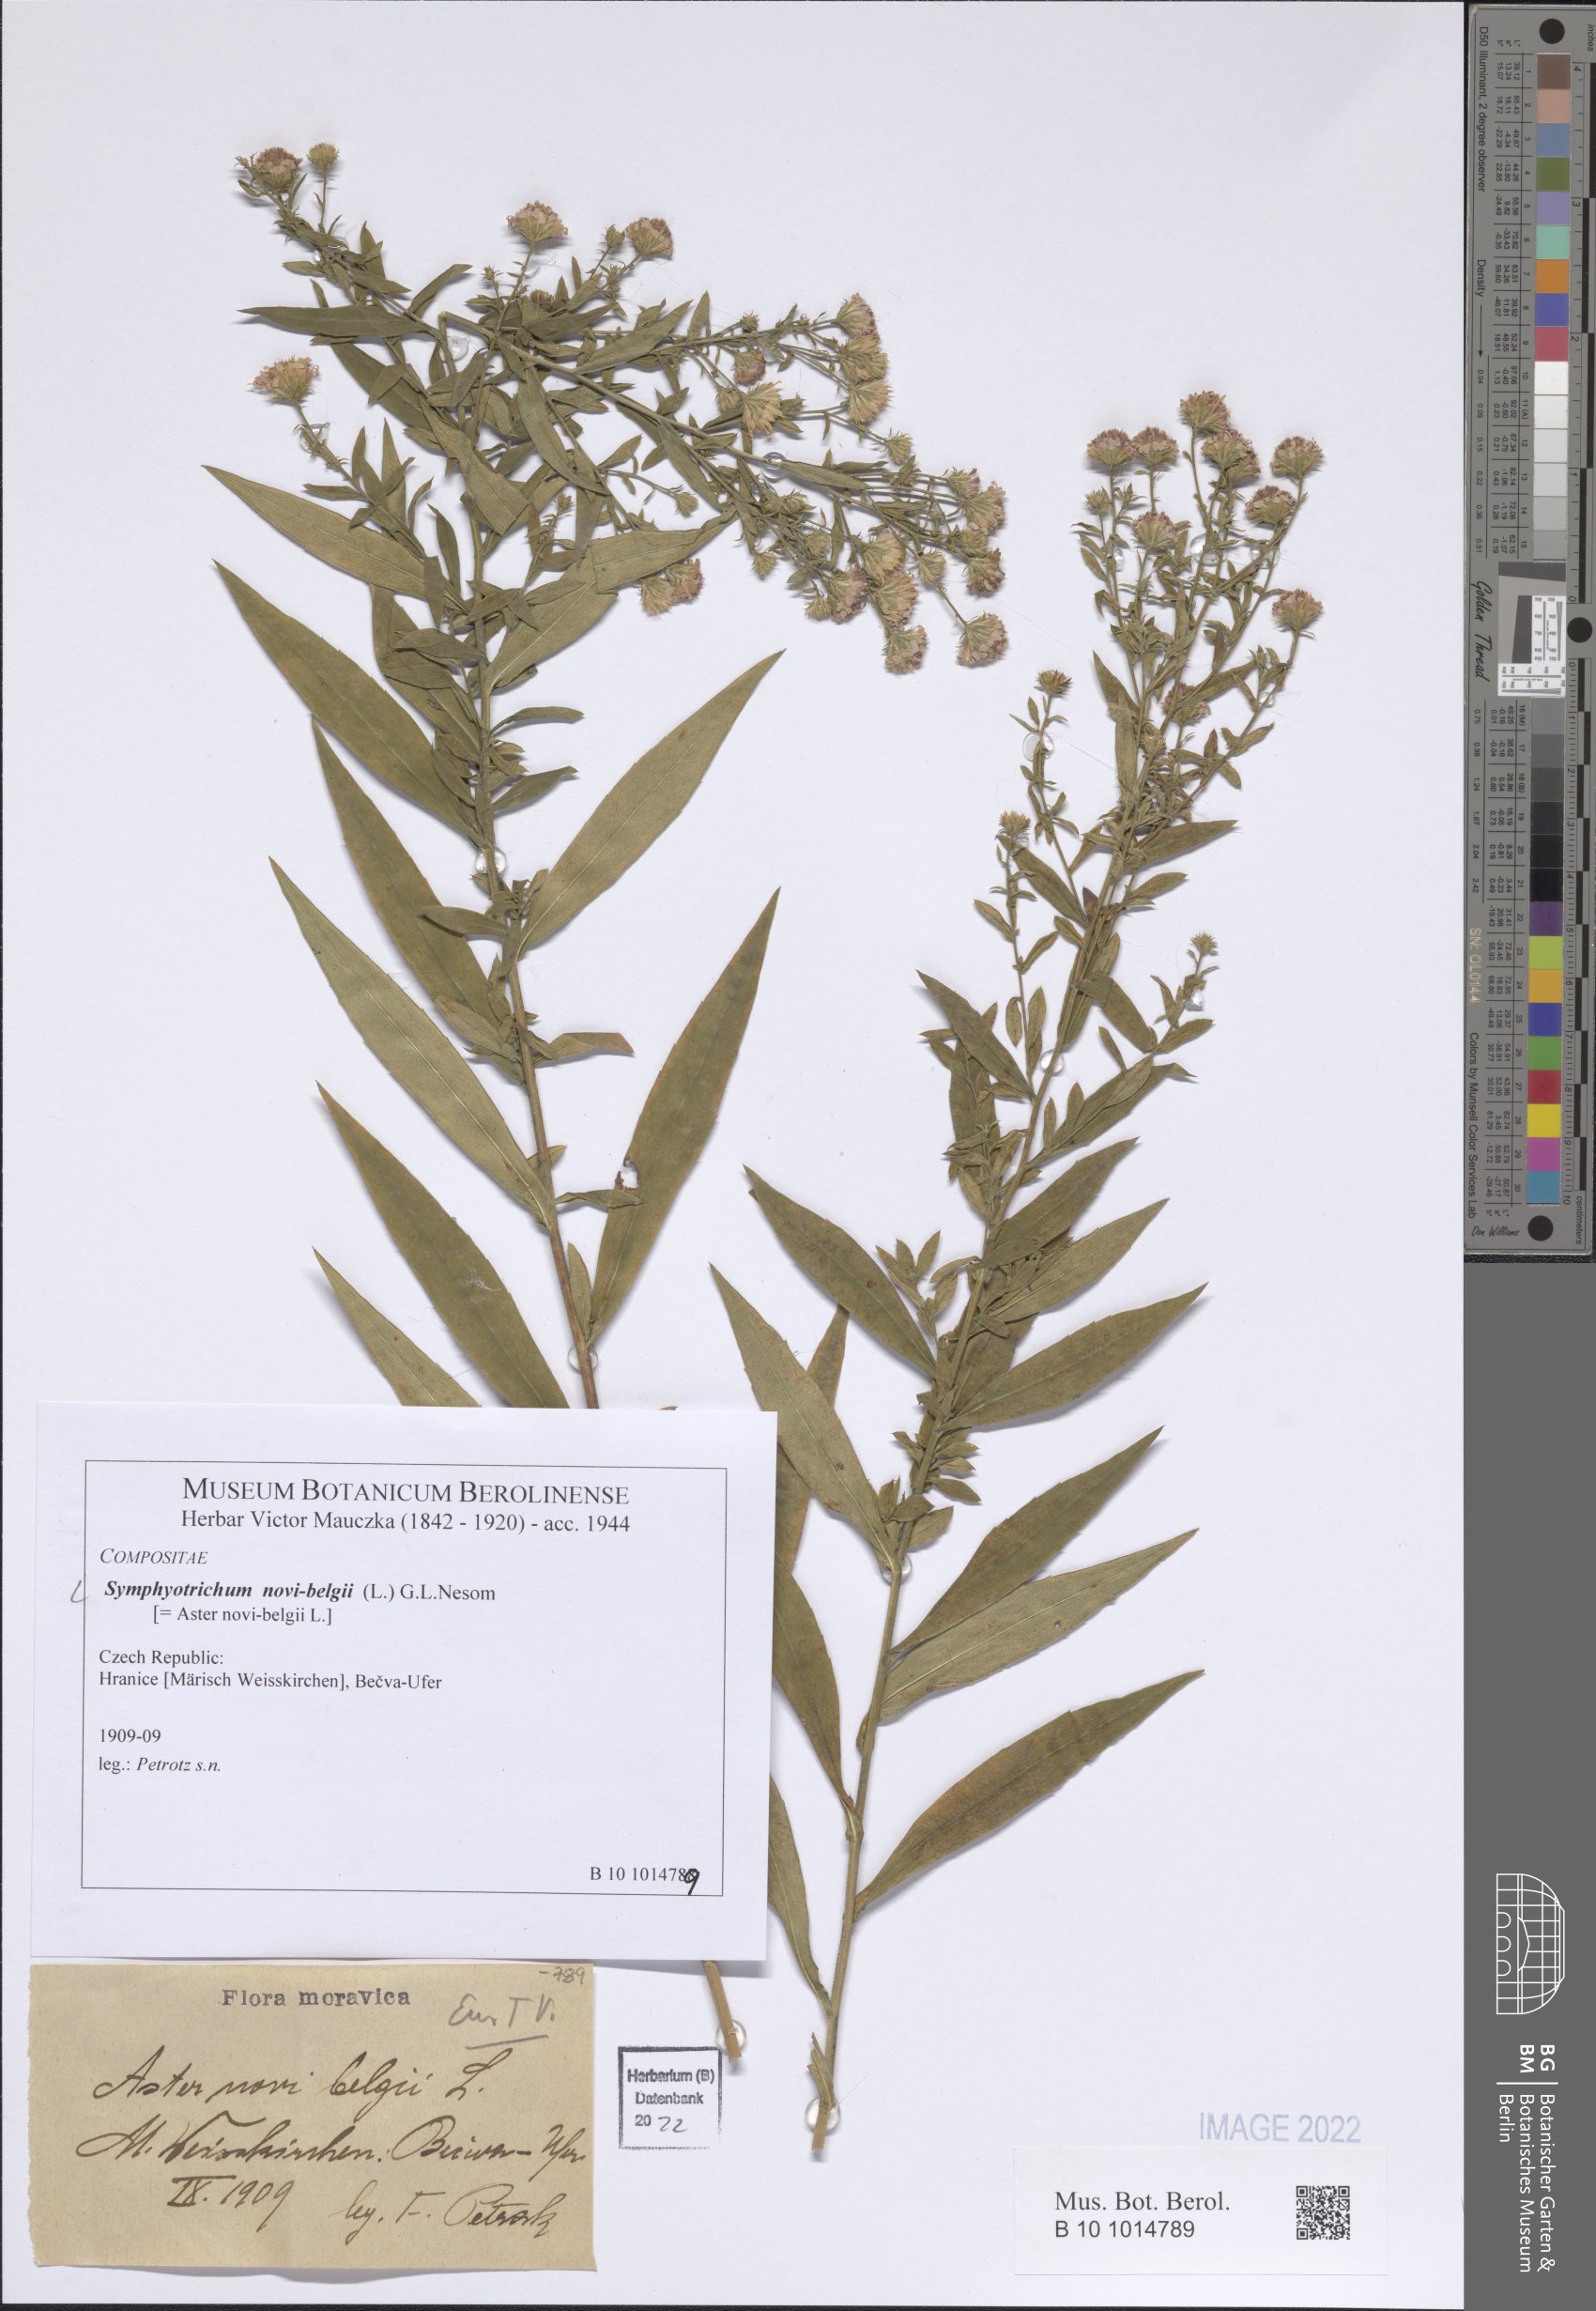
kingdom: Plantae
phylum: Tracheophyta
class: Magnoliopsida
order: Asterales
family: Asteraceae
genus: Symphyotrichum
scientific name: Symphyotrichum novi-belgii
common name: Michaelmas daisy
